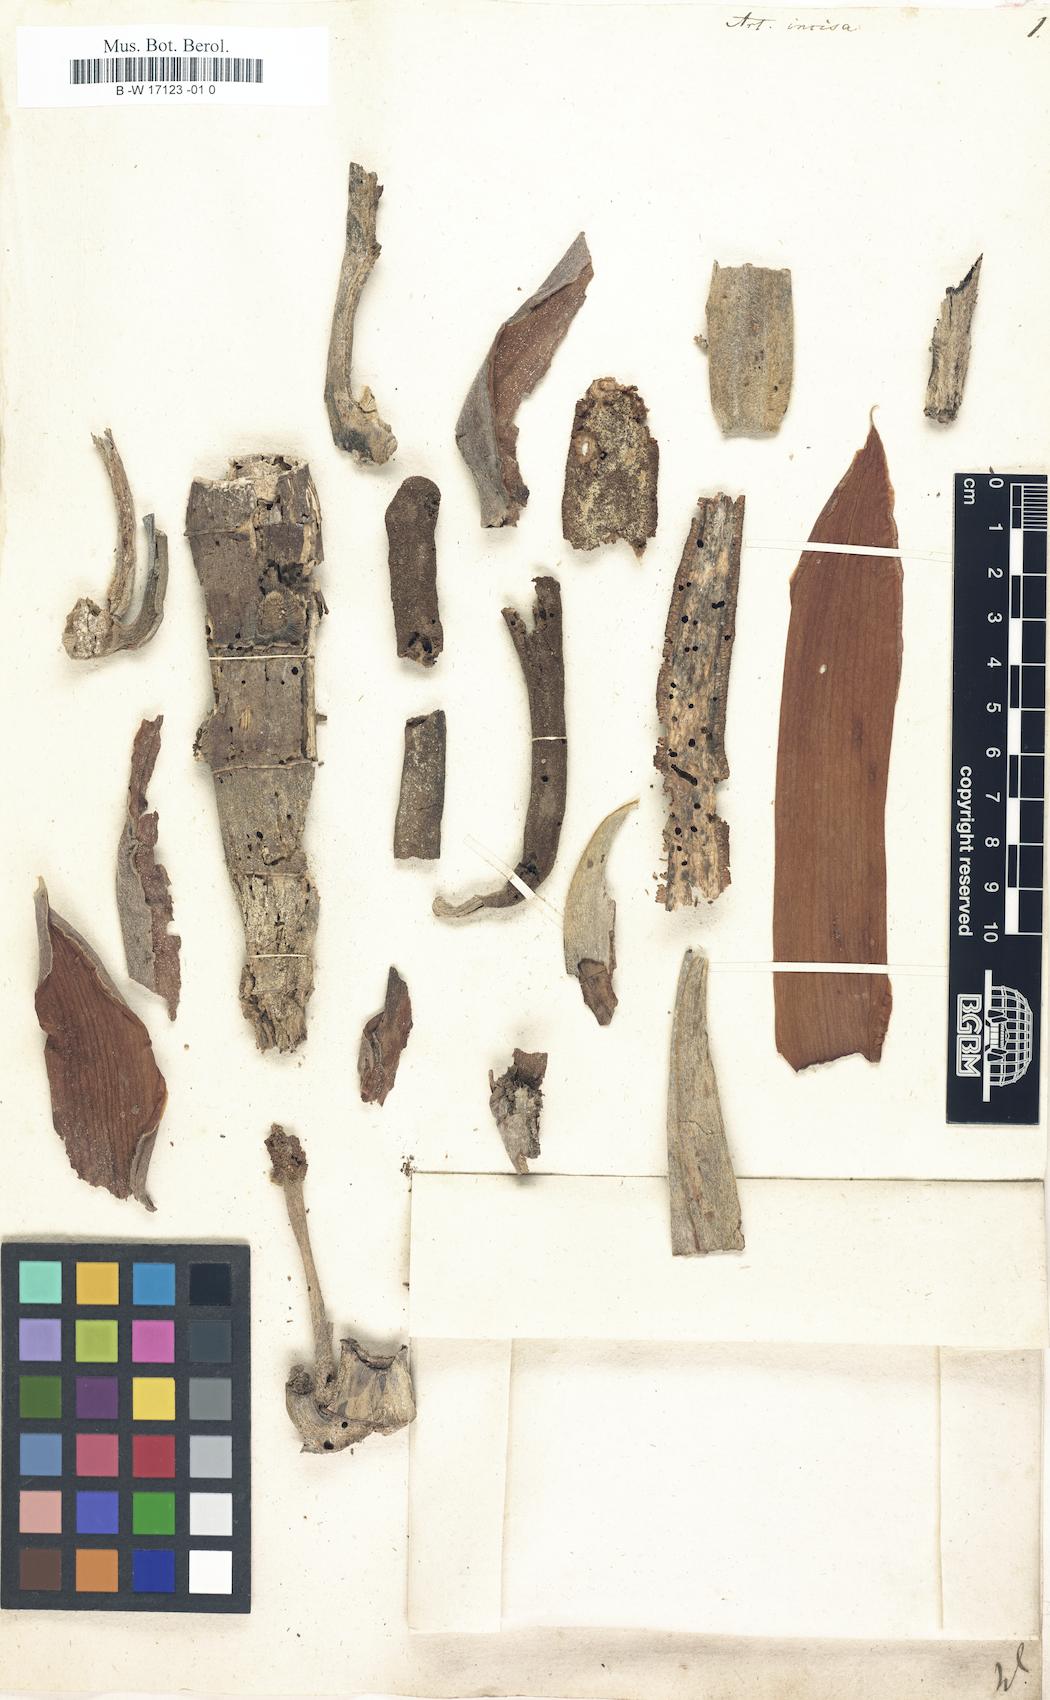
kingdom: Plantae
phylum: Tracheophyta
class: Magnoliopsida
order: Rosales
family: Moraceae
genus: Artocarpus
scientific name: Artocarpus altilis
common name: Breadfruit
